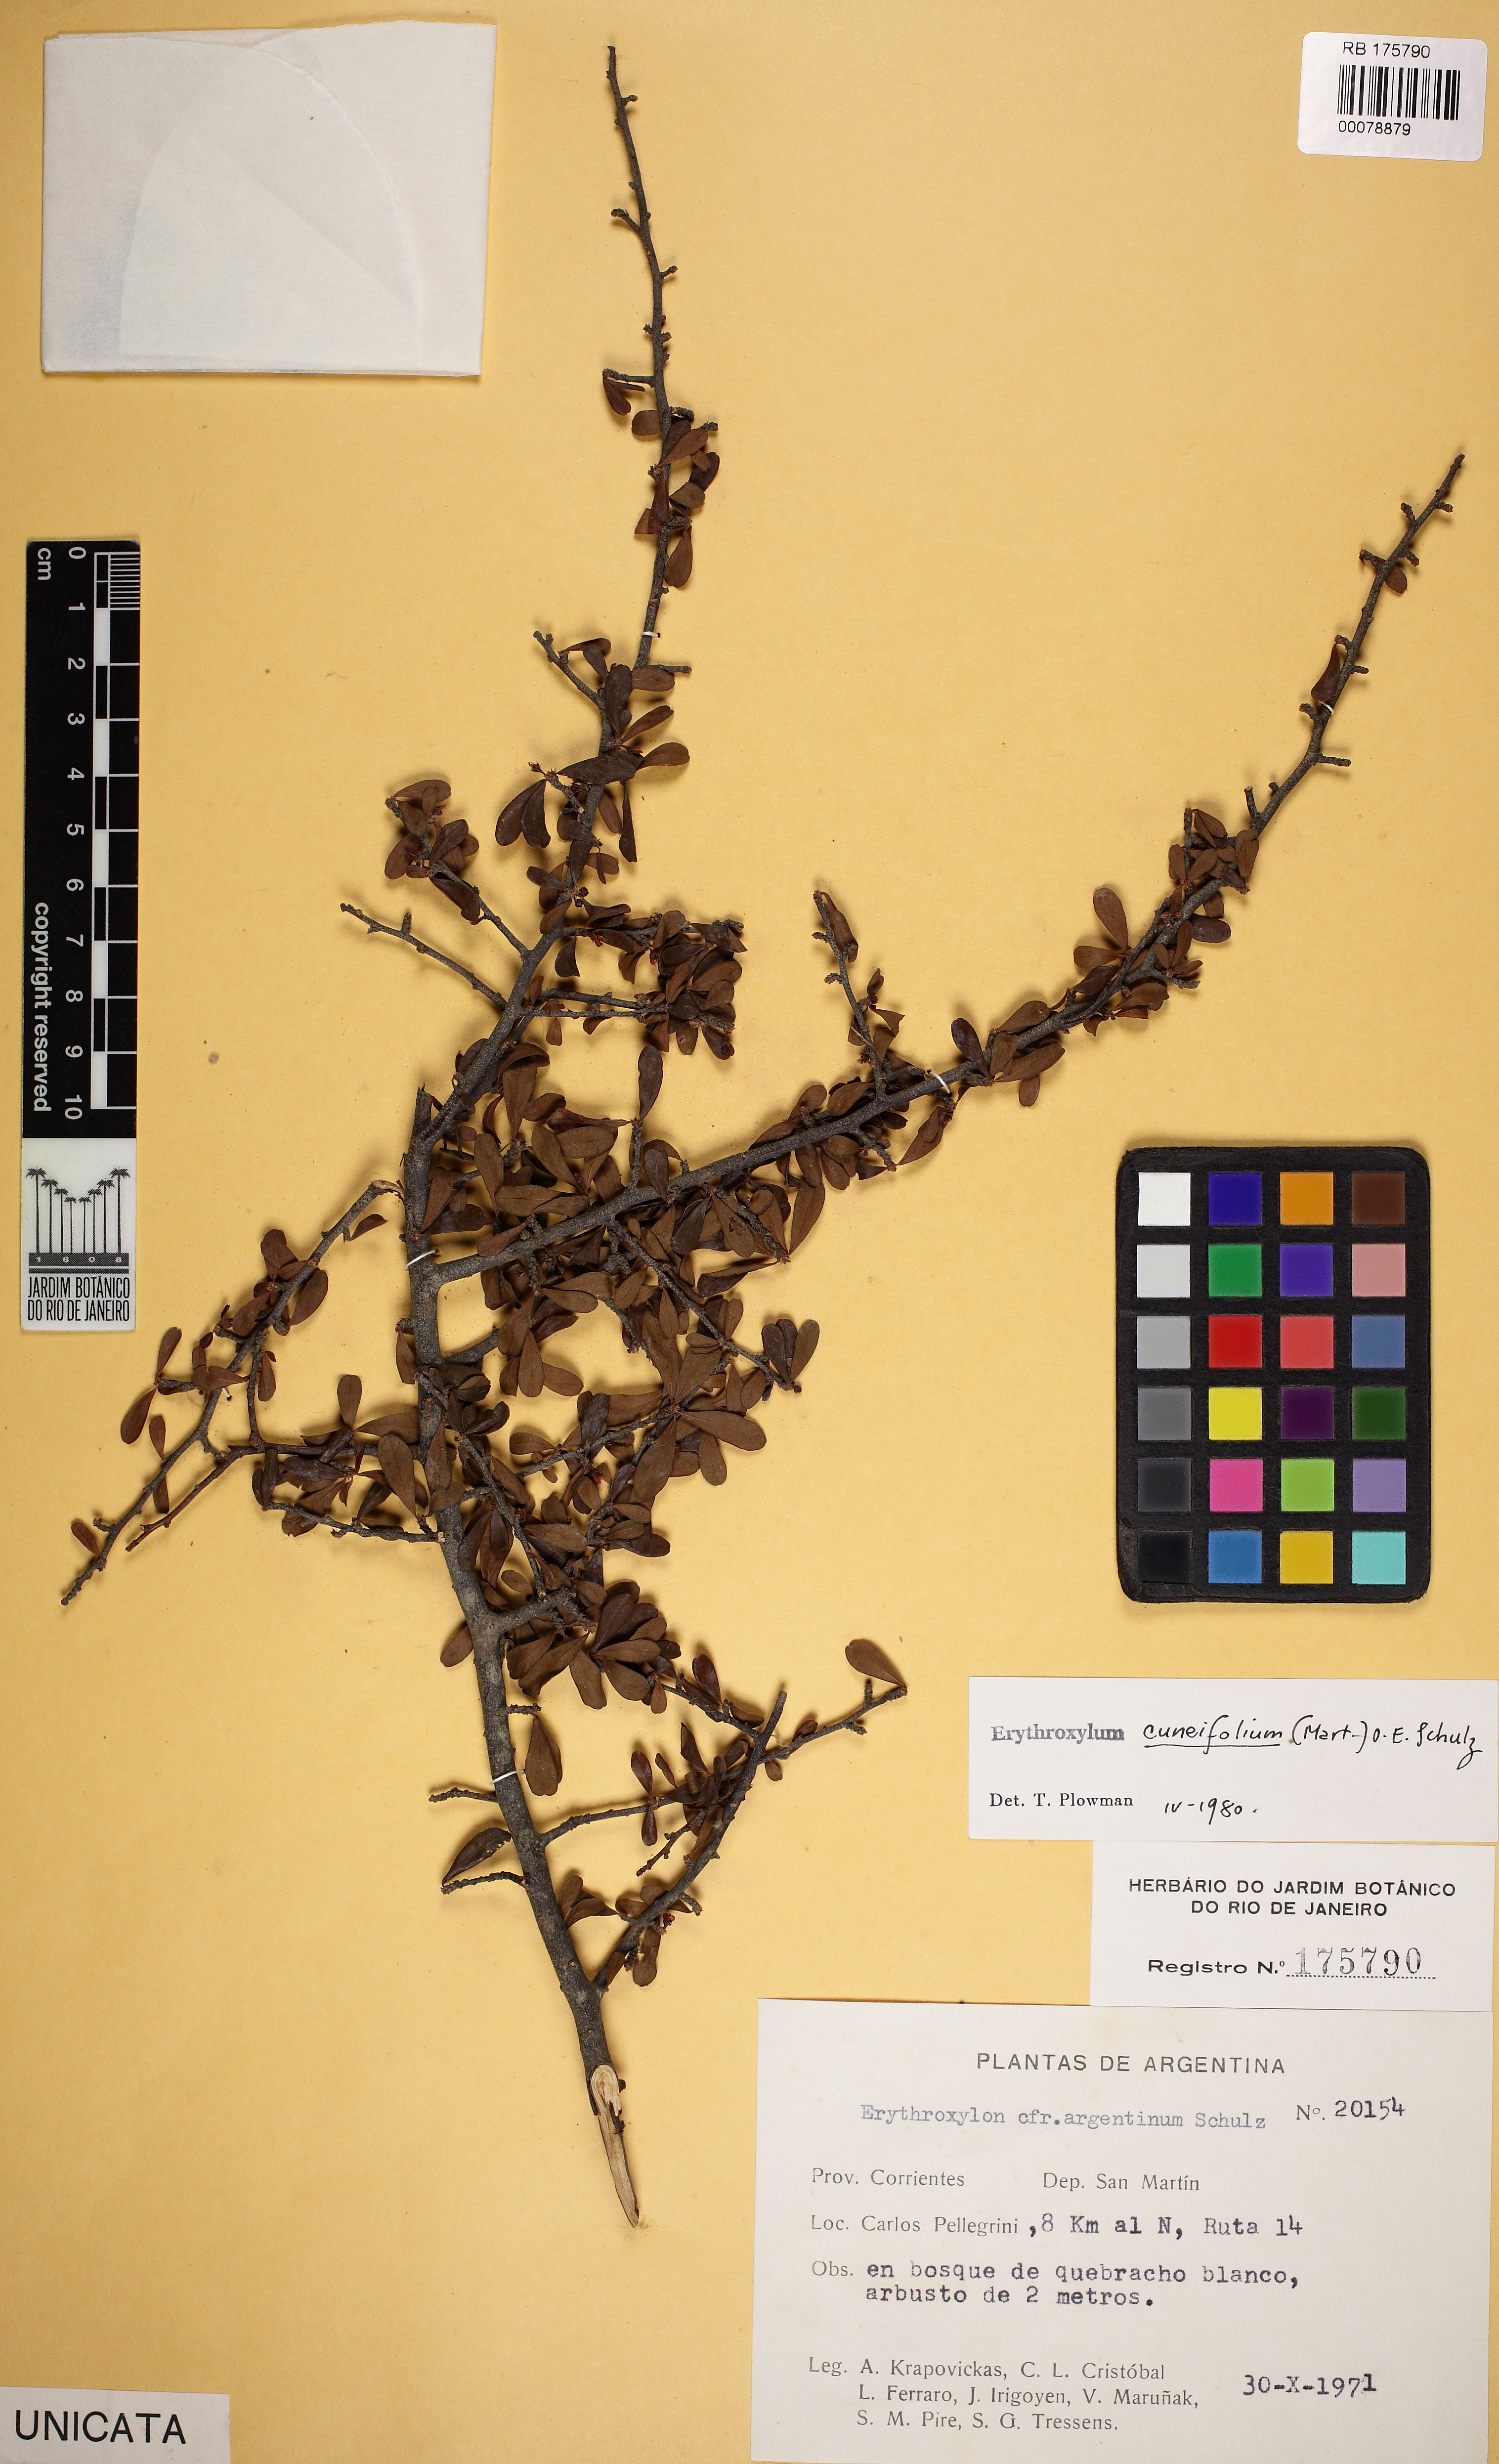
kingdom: Plantae
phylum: Tracheophyta
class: Magnoliopsida
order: Malpighiales
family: Erythroxylaceae
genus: Erythroxylum
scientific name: Erythroxylum cuneifolium
